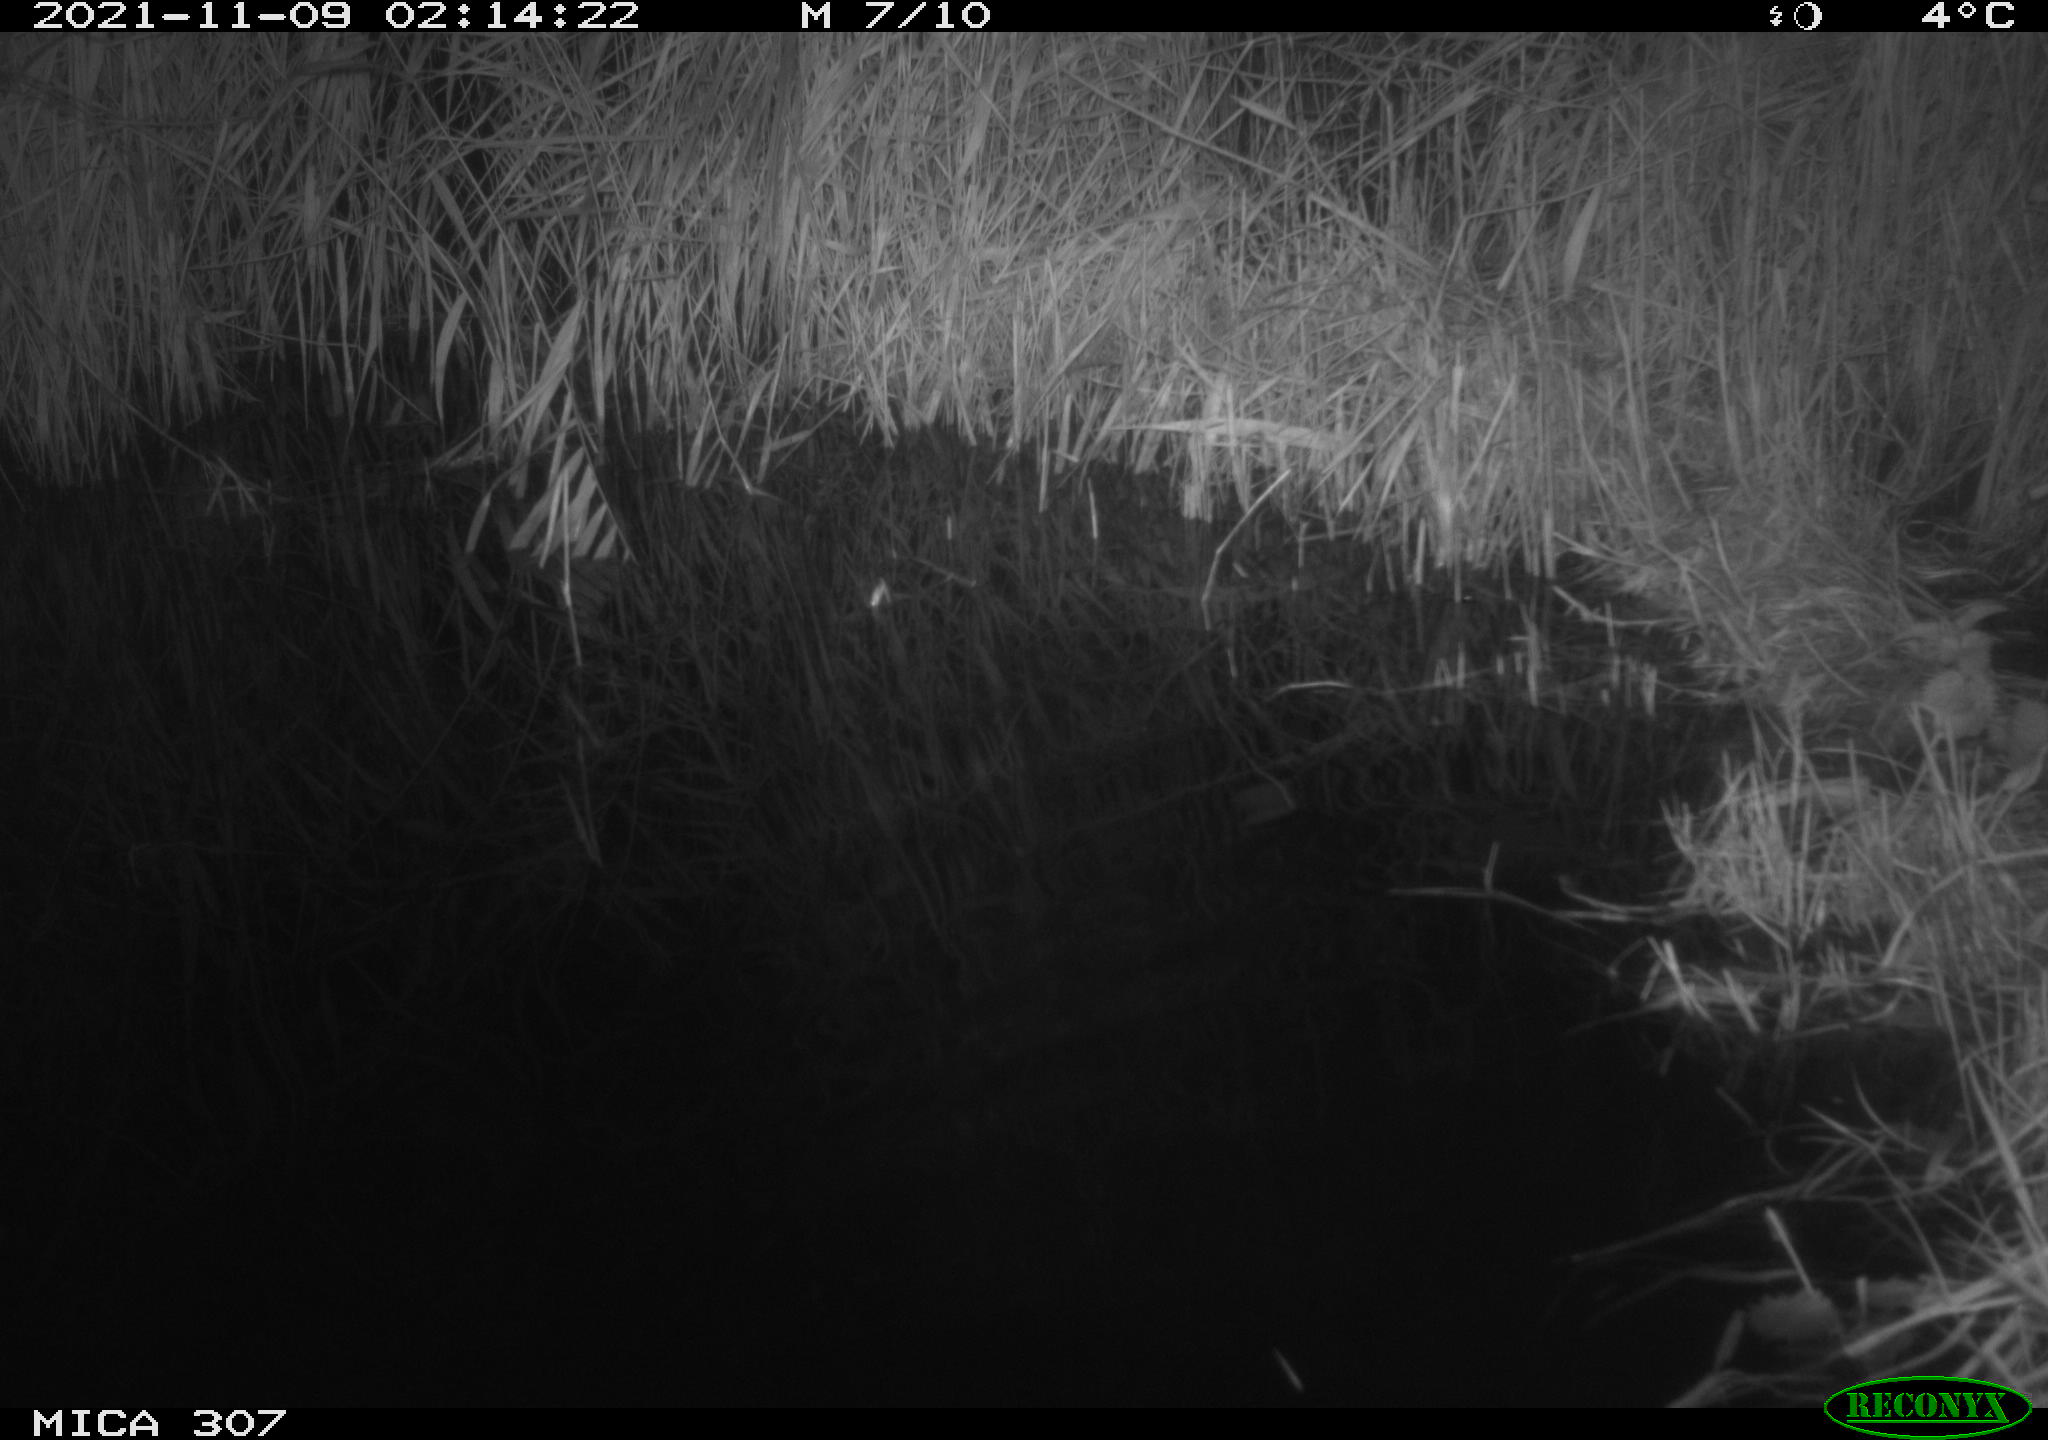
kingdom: Animalia
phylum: Chordata
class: Mammalia
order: Rodentia
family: Muridae
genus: Rattus
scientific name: Rattus norvegicus
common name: Brown rat
